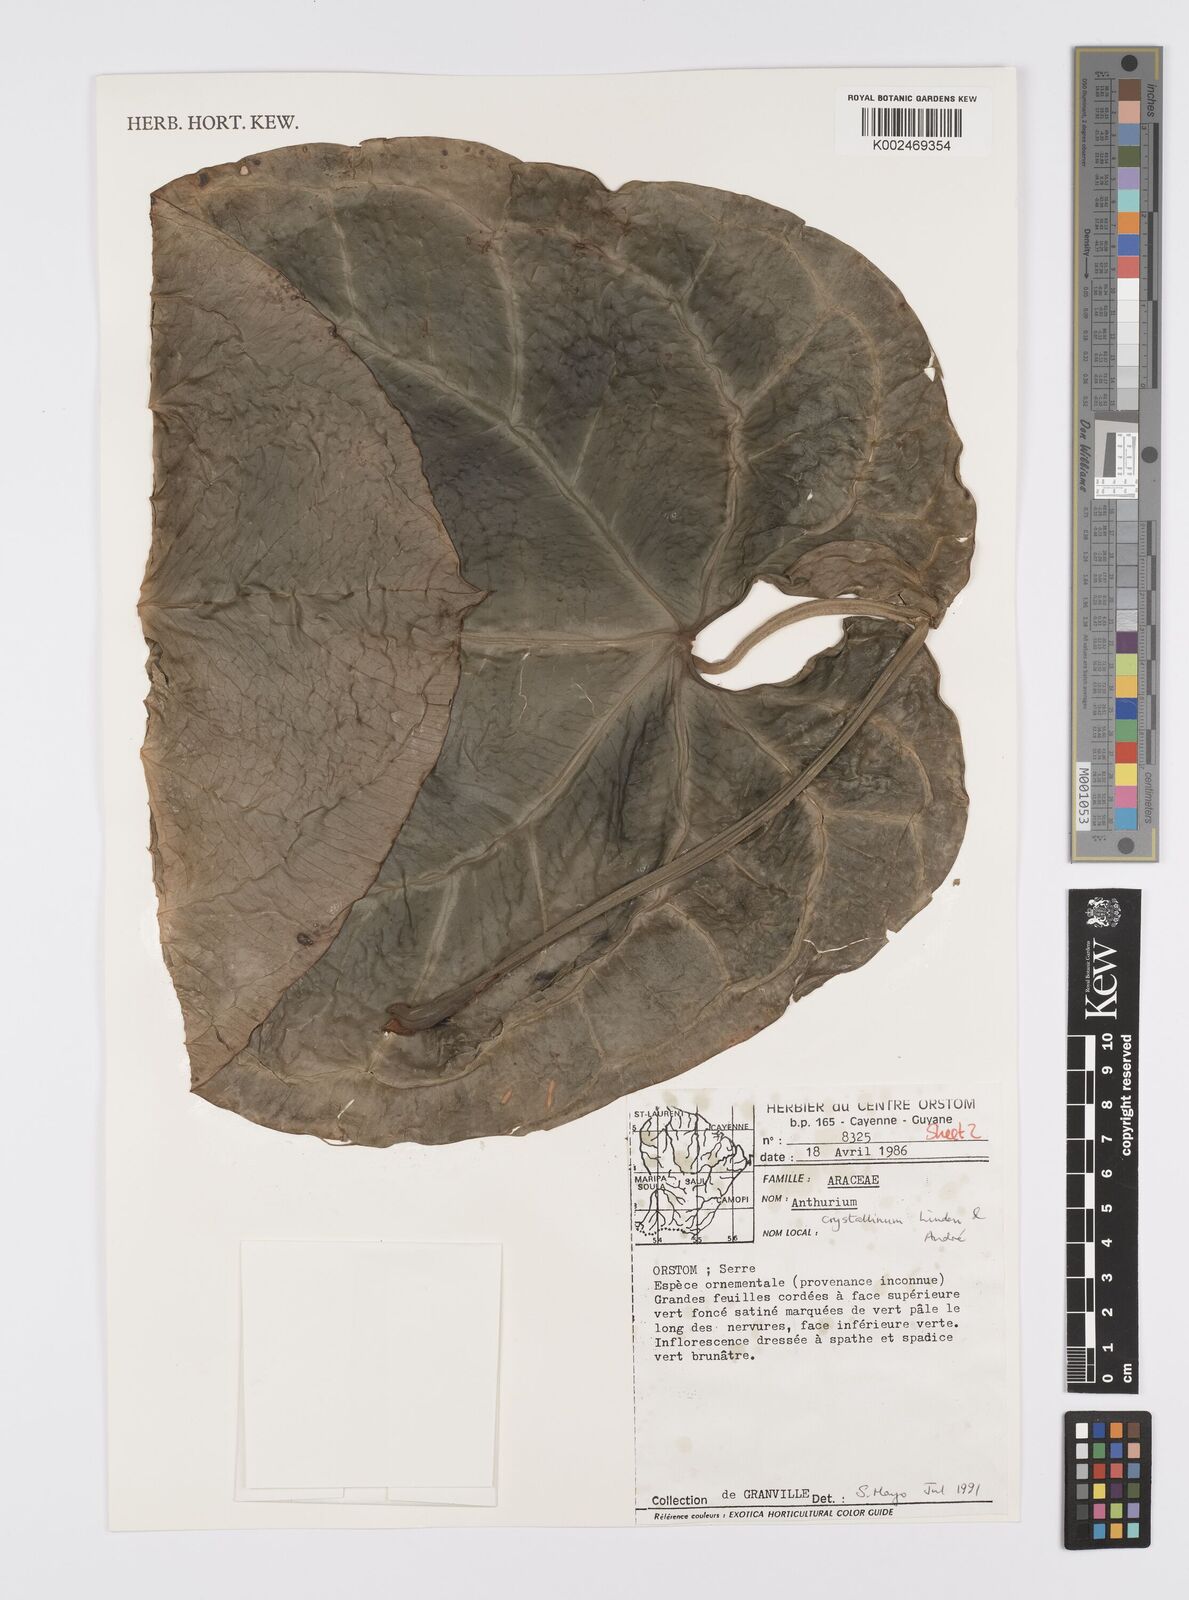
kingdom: Plantae
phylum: Tracheophyta
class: Liliopsida
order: Alismatales
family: Araceae
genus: Anthurium
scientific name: Anthurium crystallinum
